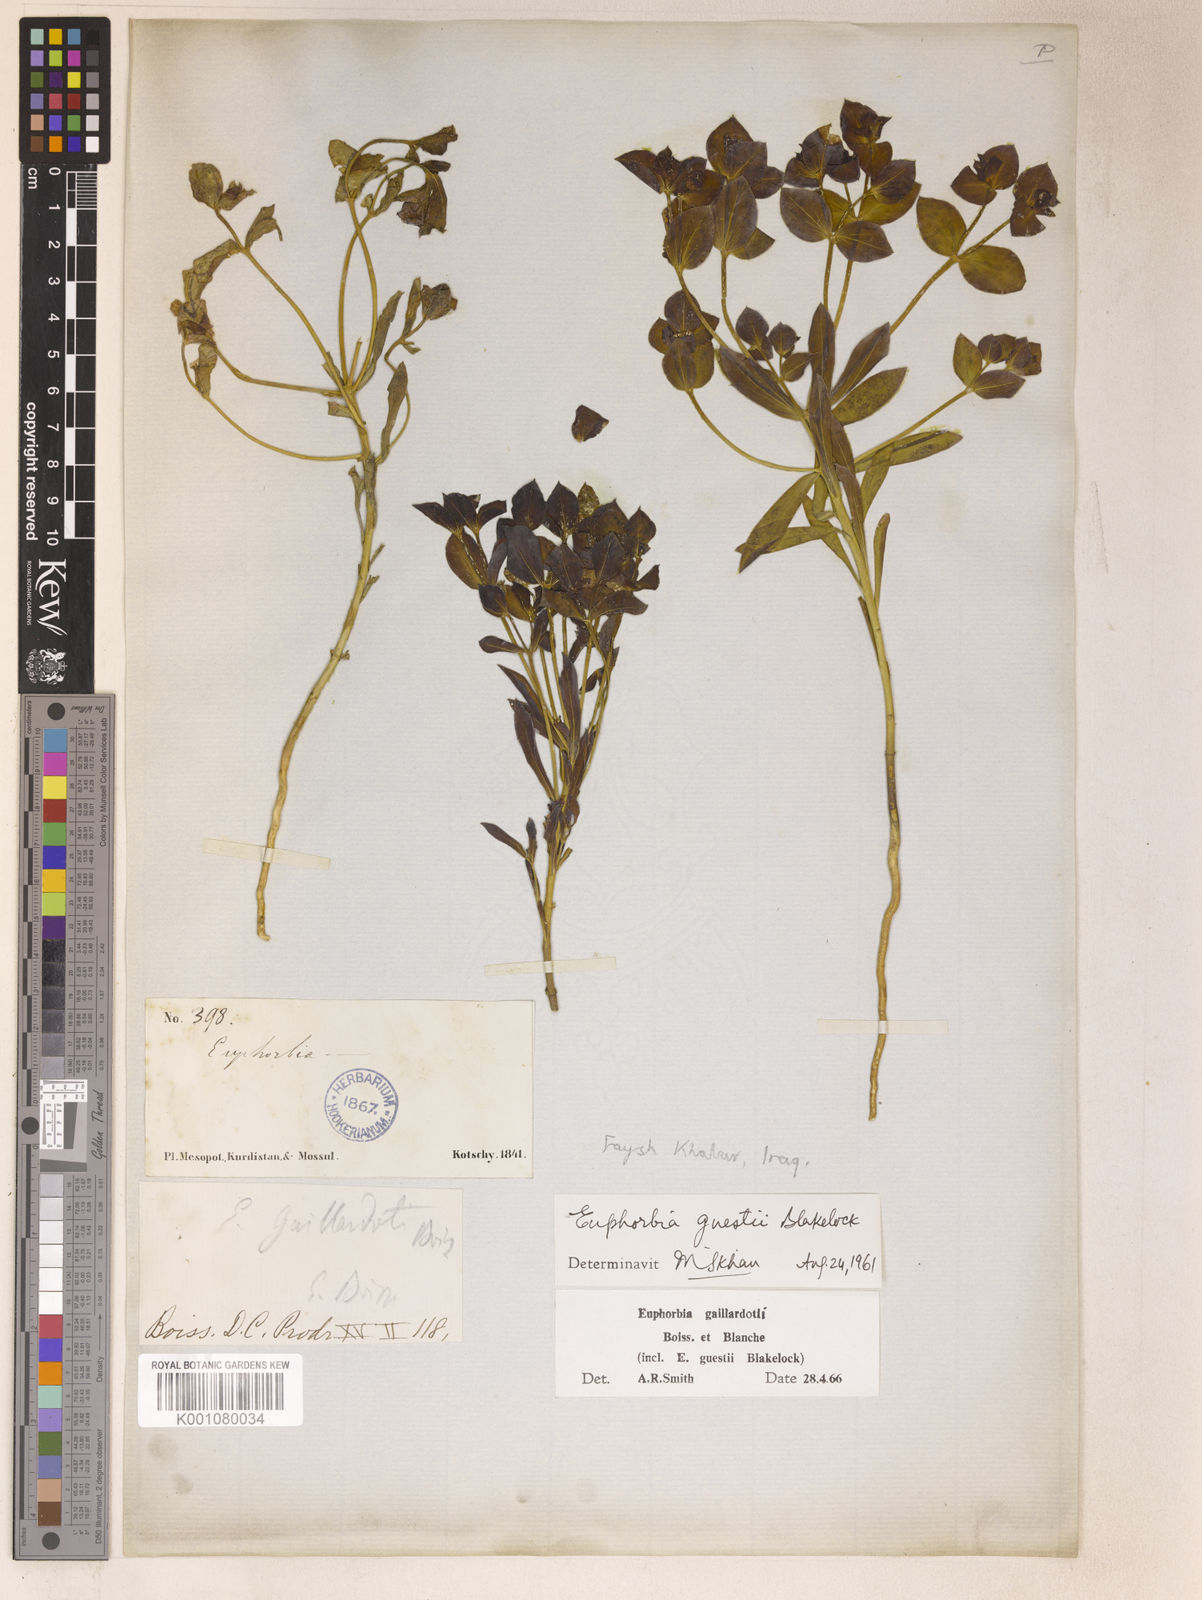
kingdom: Plantae
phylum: Tracheophyta
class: Magnoliopsida
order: Malpighiales
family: Euphorbiaceae
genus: Euphorbia
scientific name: Euphorbia gaillardotii
